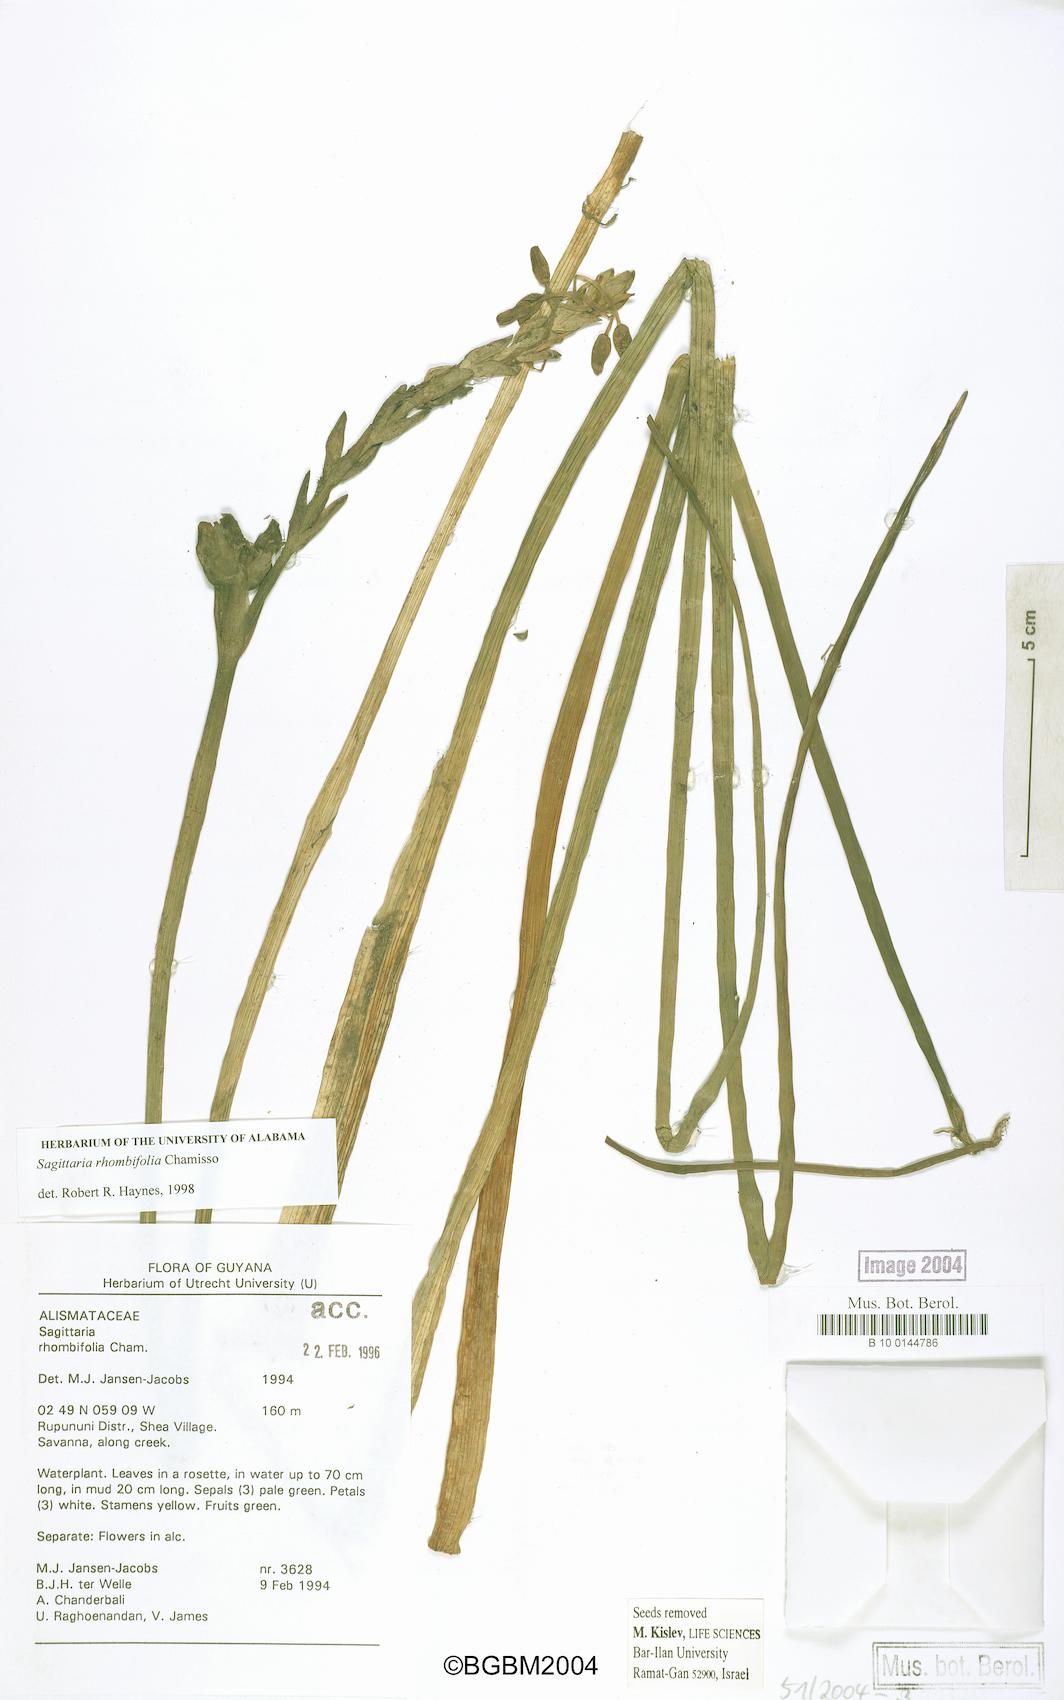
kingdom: Plantae
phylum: Tracheophyta
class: Liliopsida
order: Alismatales
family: Alismataceae
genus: Sagittaria
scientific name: Sagittaria rhombifolia
